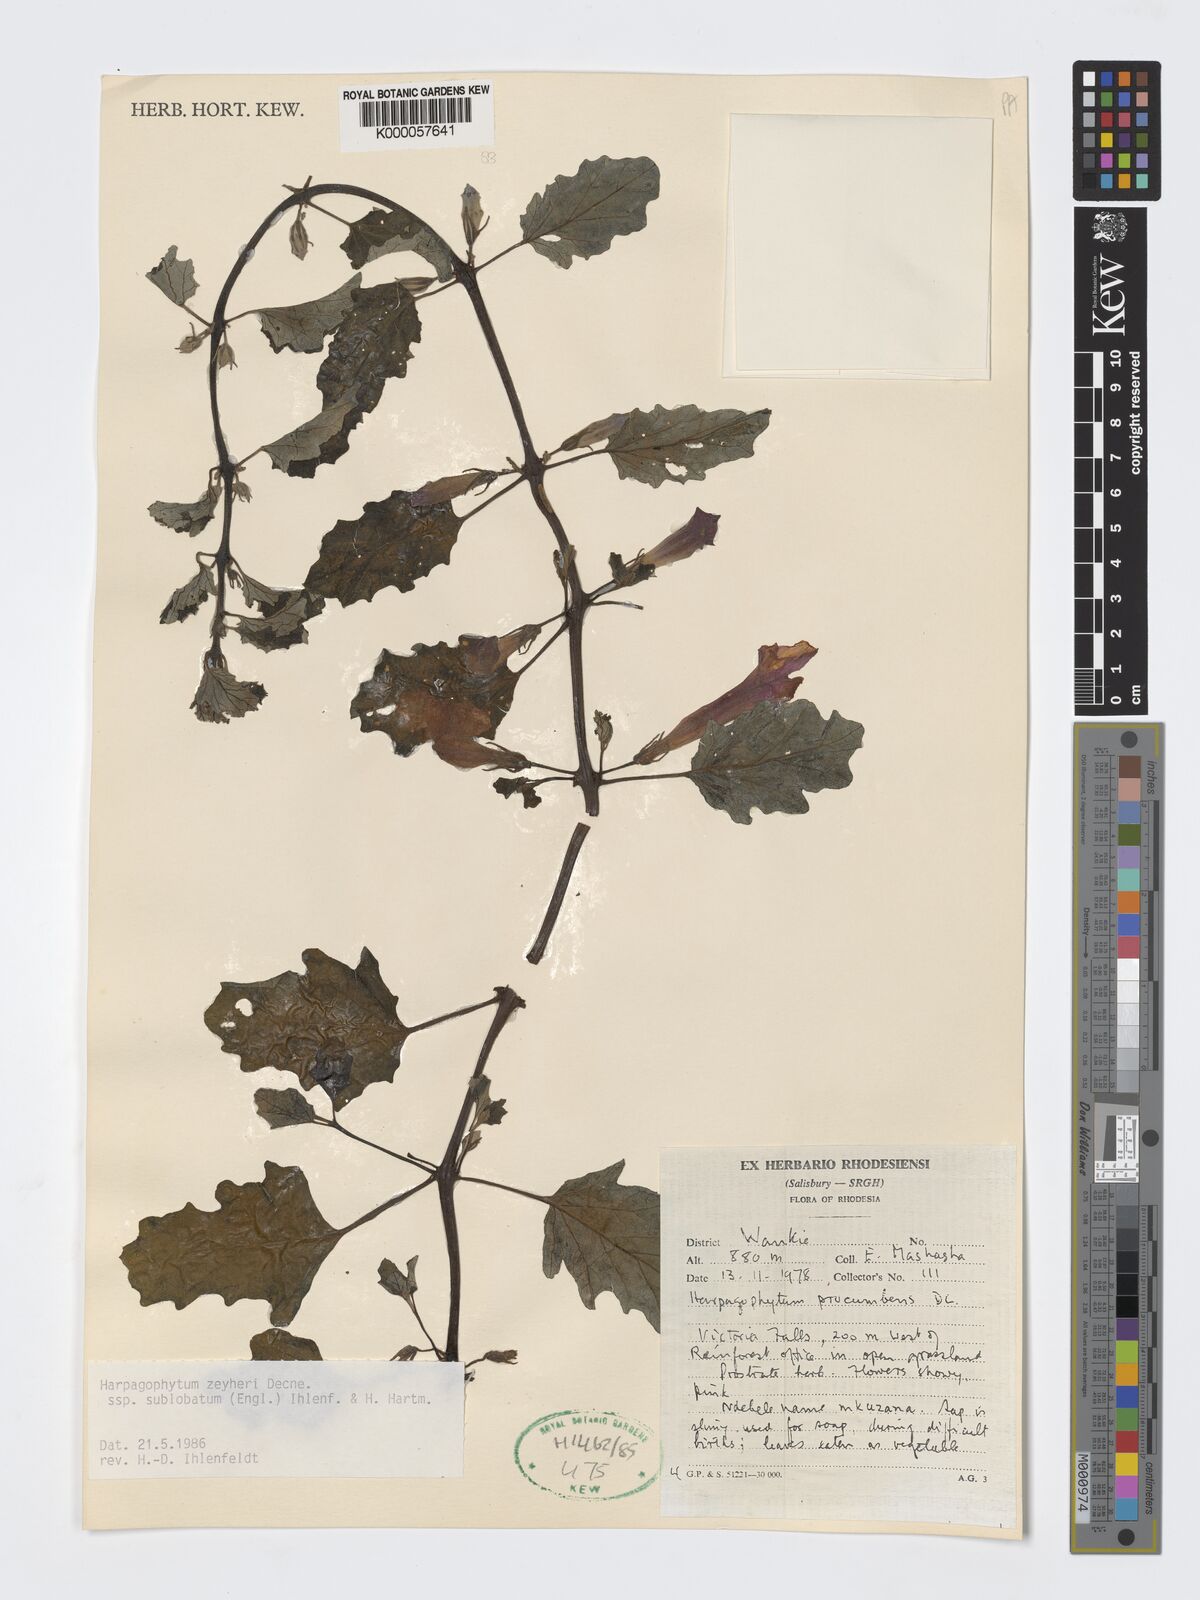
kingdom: Plantae
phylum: Tracheophyta
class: Magnoliopsida
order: Lamiales
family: Pedaliaceae
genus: Harpagophytum
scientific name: Harpagophytum zeyheri
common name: Grappleplant
